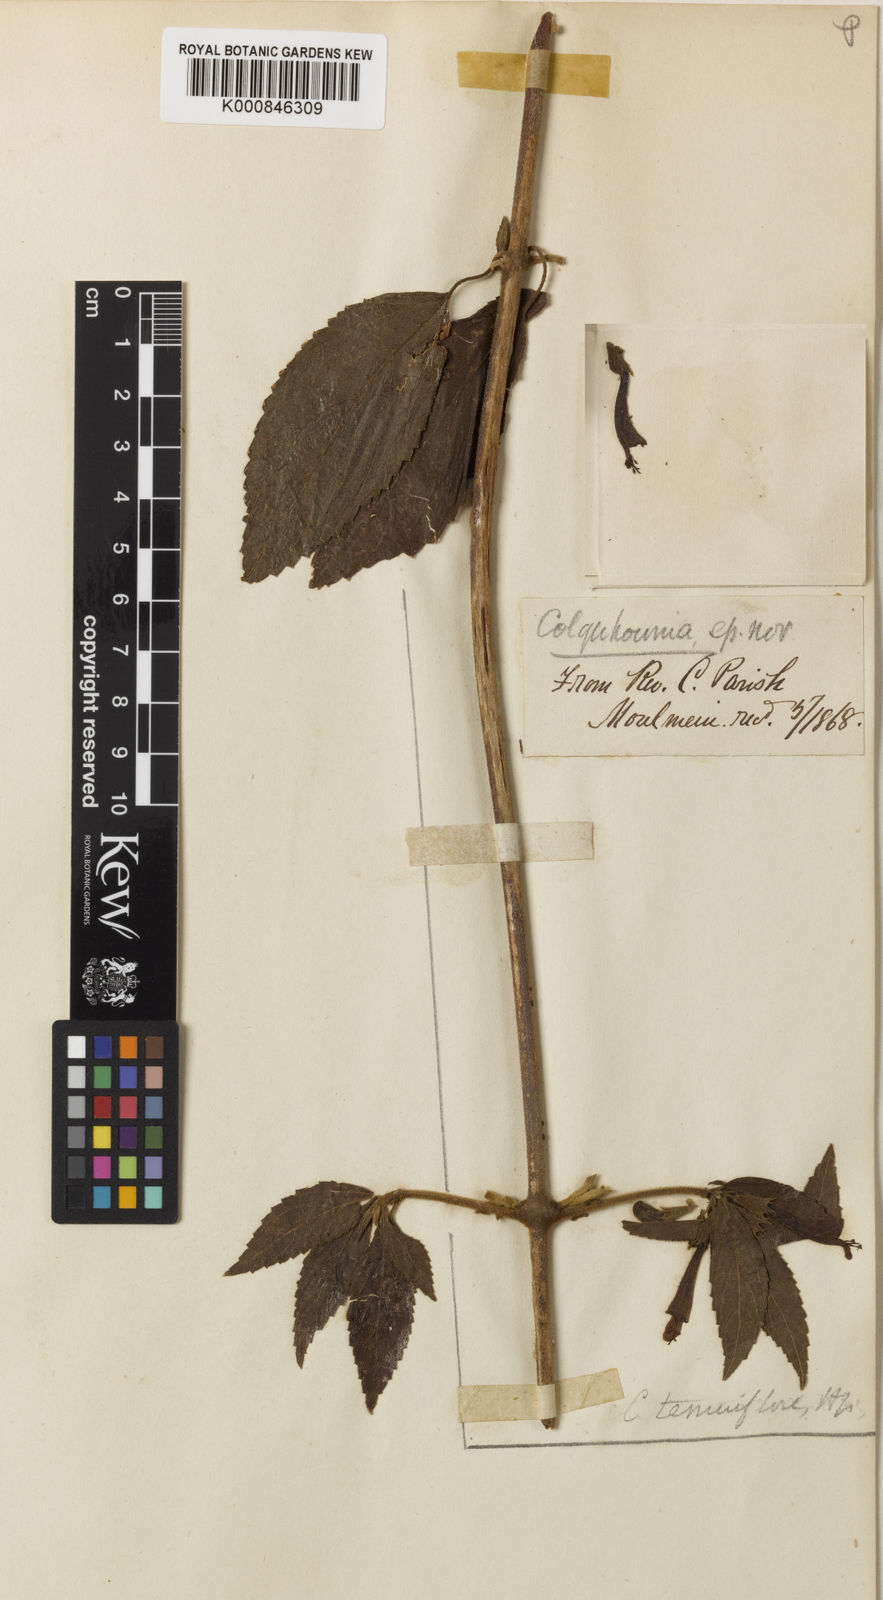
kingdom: Plantae
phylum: Tracheophyta
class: Magnoliopsida
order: Lamiales
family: Lamiaceae
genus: Colquhounia
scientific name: Colquhounia elegans
